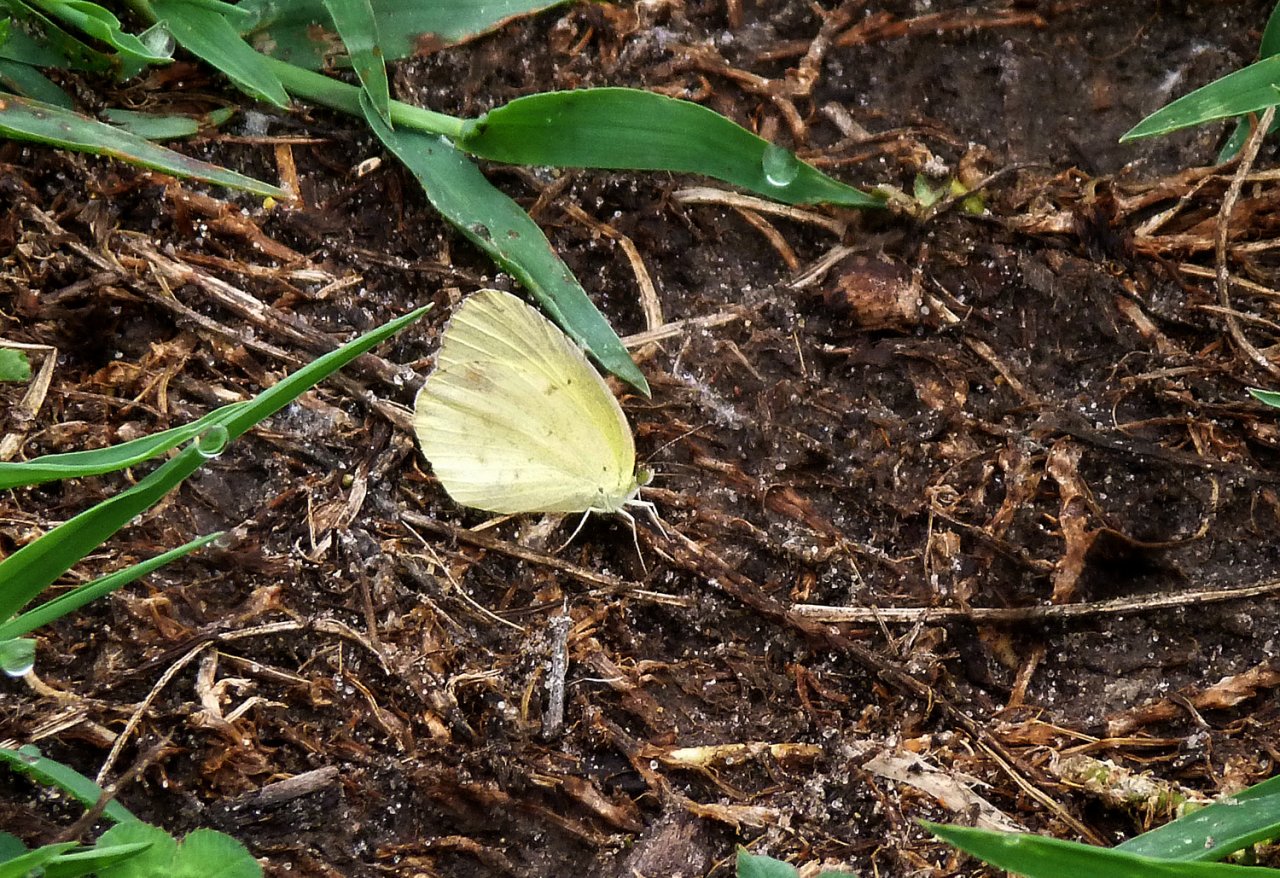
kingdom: Animalia
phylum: Arthropoda
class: Insecta
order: Lepidoptera
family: Pieridae
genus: Pyrisitia
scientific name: Pyrisitia lisa
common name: Little Yellow
